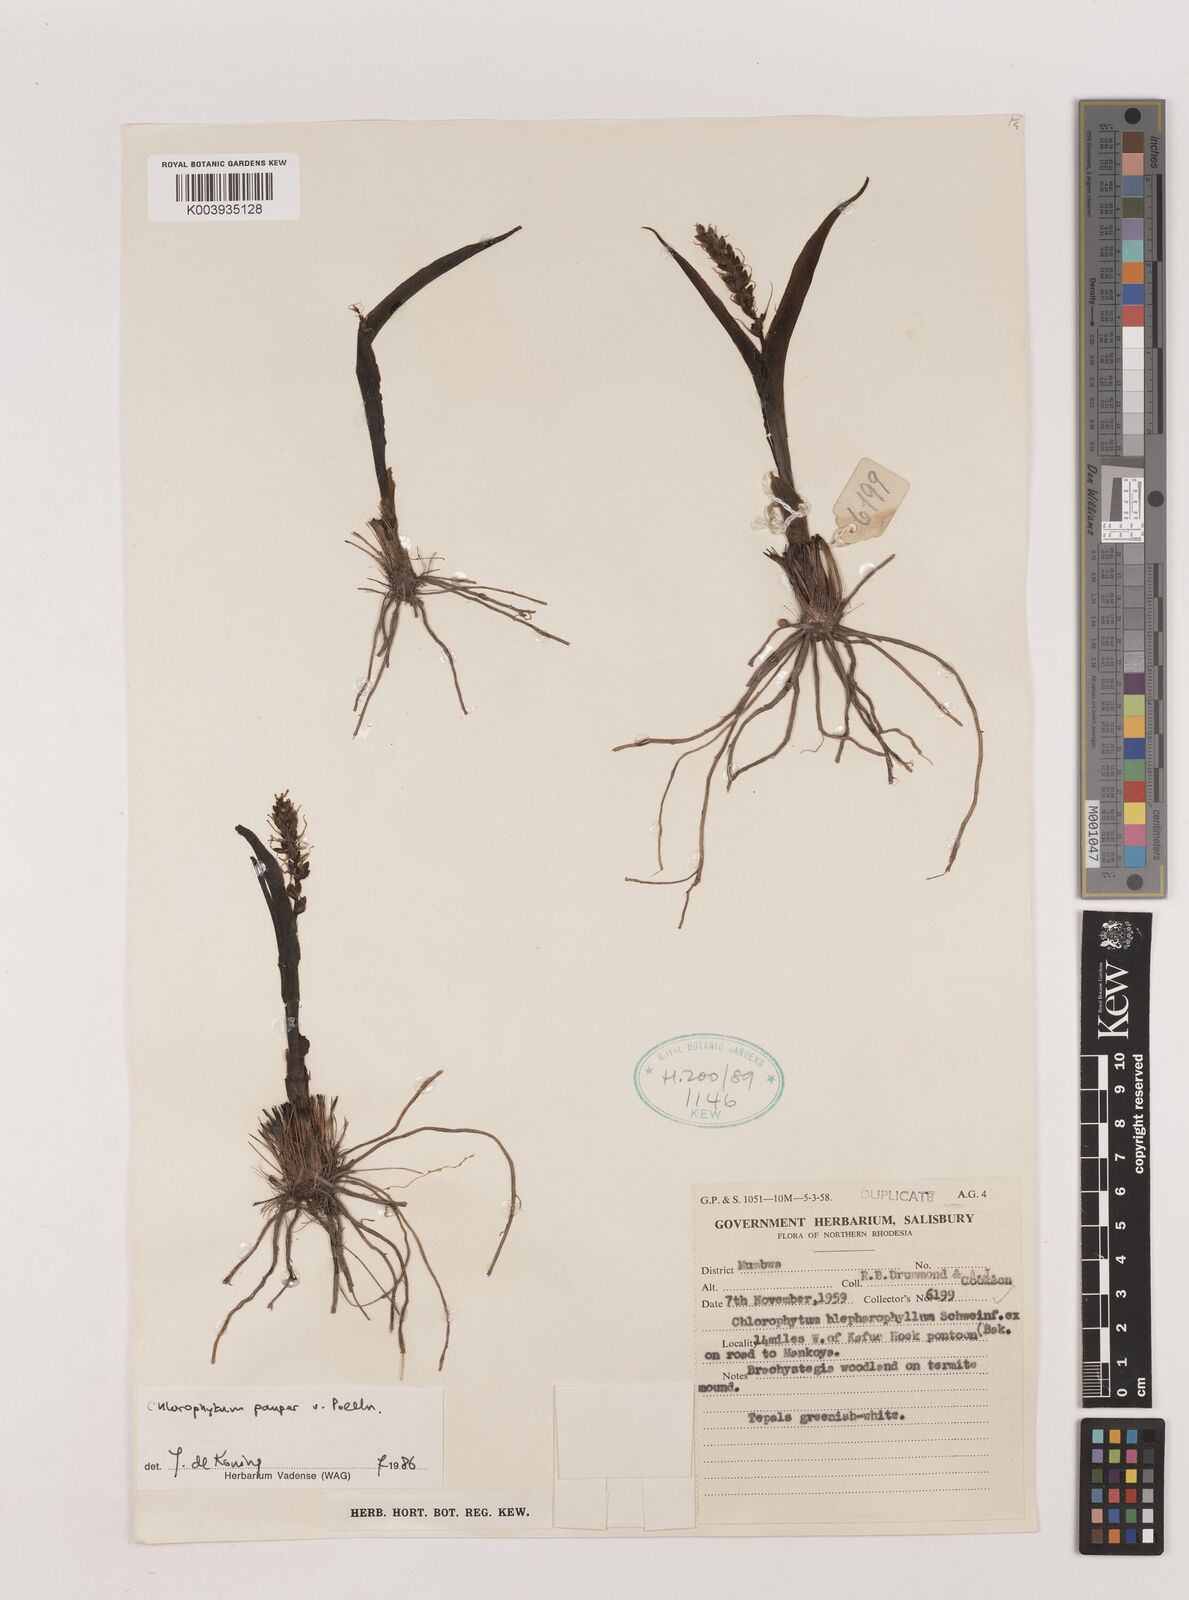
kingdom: Plantae
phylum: Tracheophyta
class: Liliopsida
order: Asparagales
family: Asparagaceae
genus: Chlorophytum
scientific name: Chlorophytum pauper
